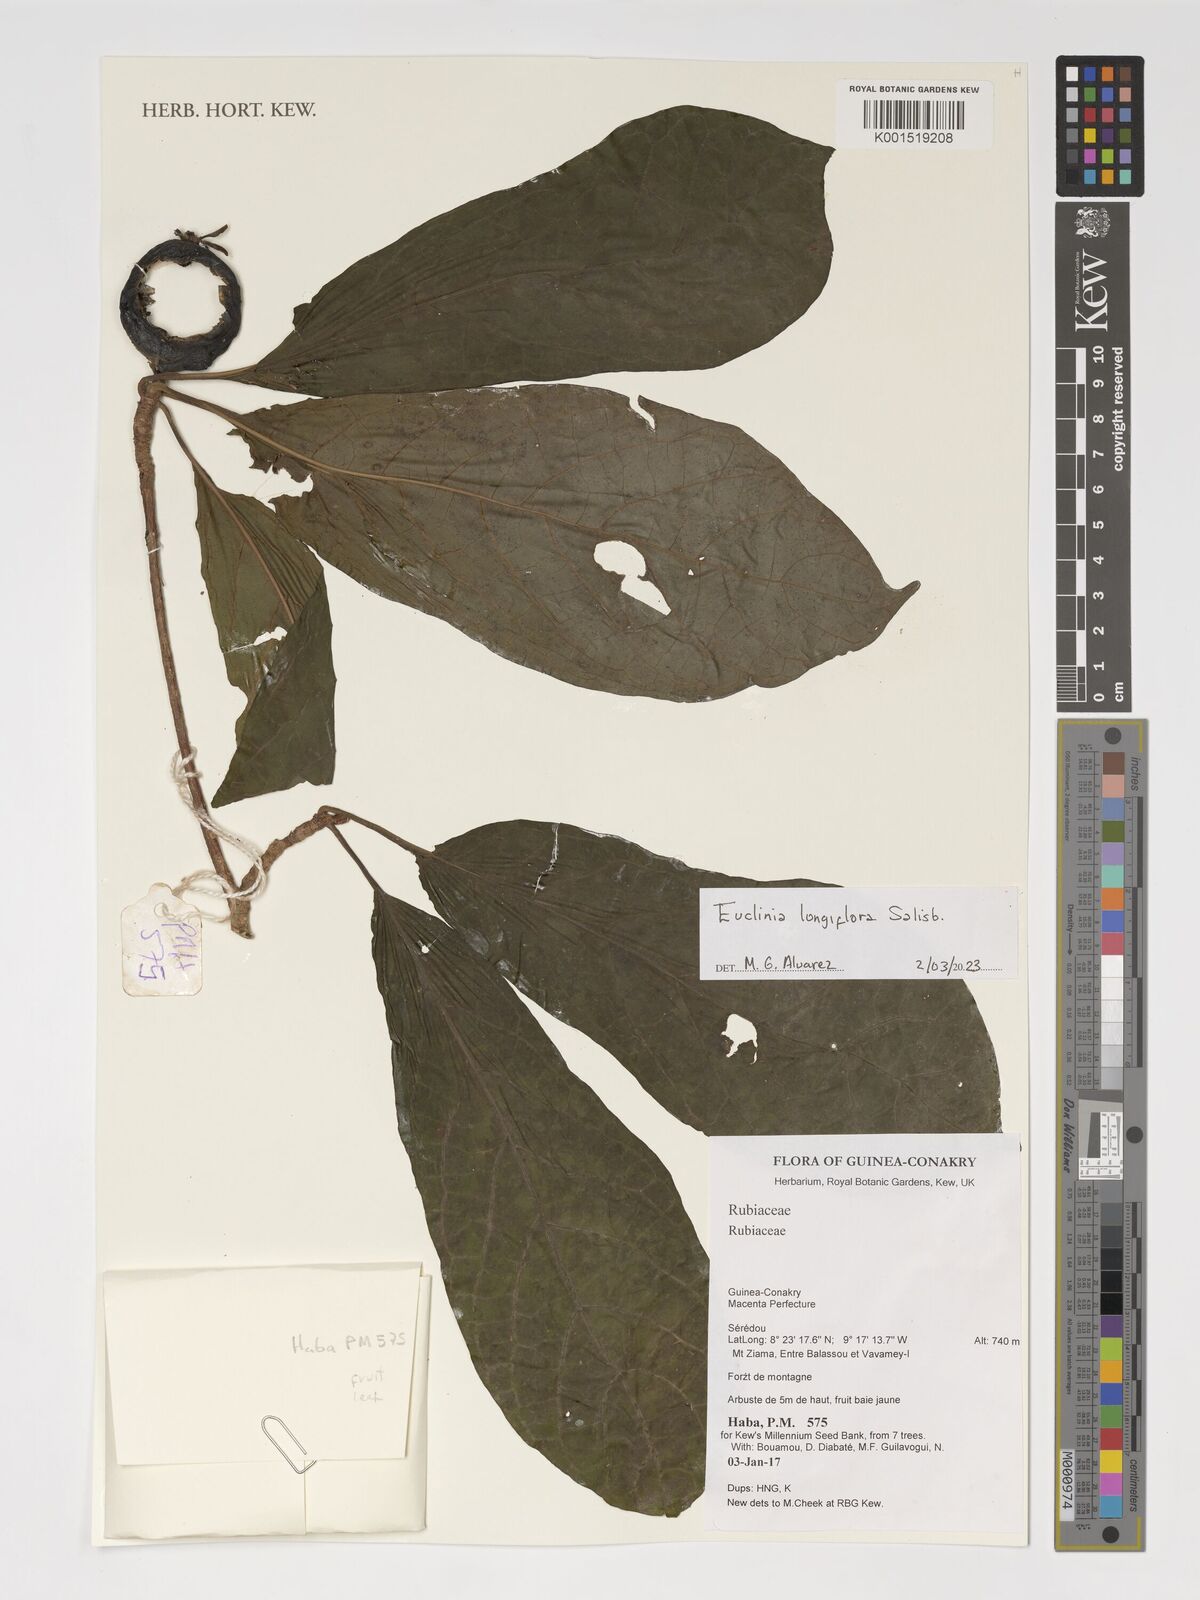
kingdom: Plantae
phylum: Tracheophyta
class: Magnoliopsida
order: Gentianales
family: Rubiaceae
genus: Euclinia
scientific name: Euclinia longiflora
